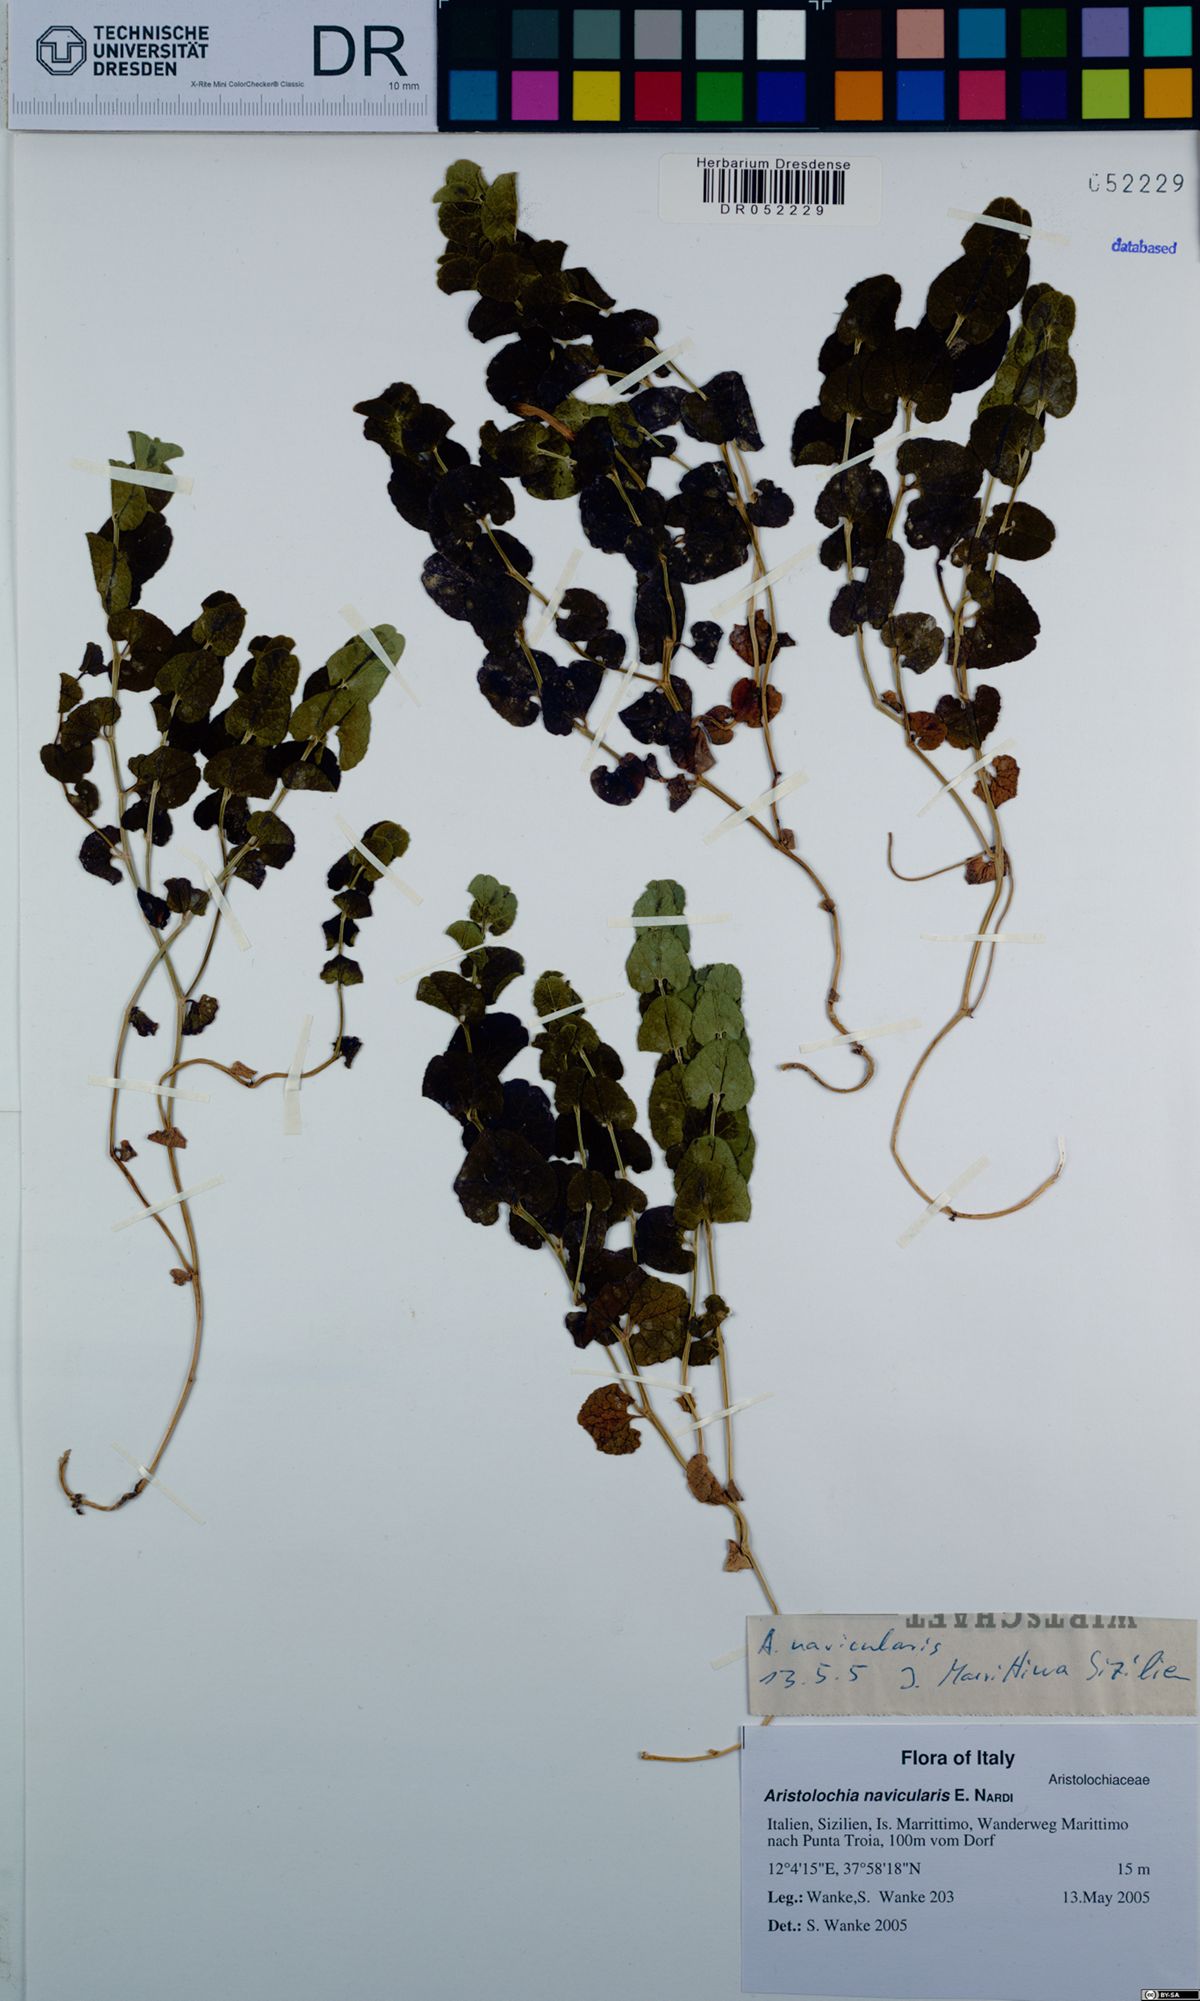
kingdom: Plantae
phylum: Tracheophyta
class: Magnoliopsida
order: Piperales
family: Aristolochiaceae
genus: Aristolochia
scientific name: Aristolochia navicularis
